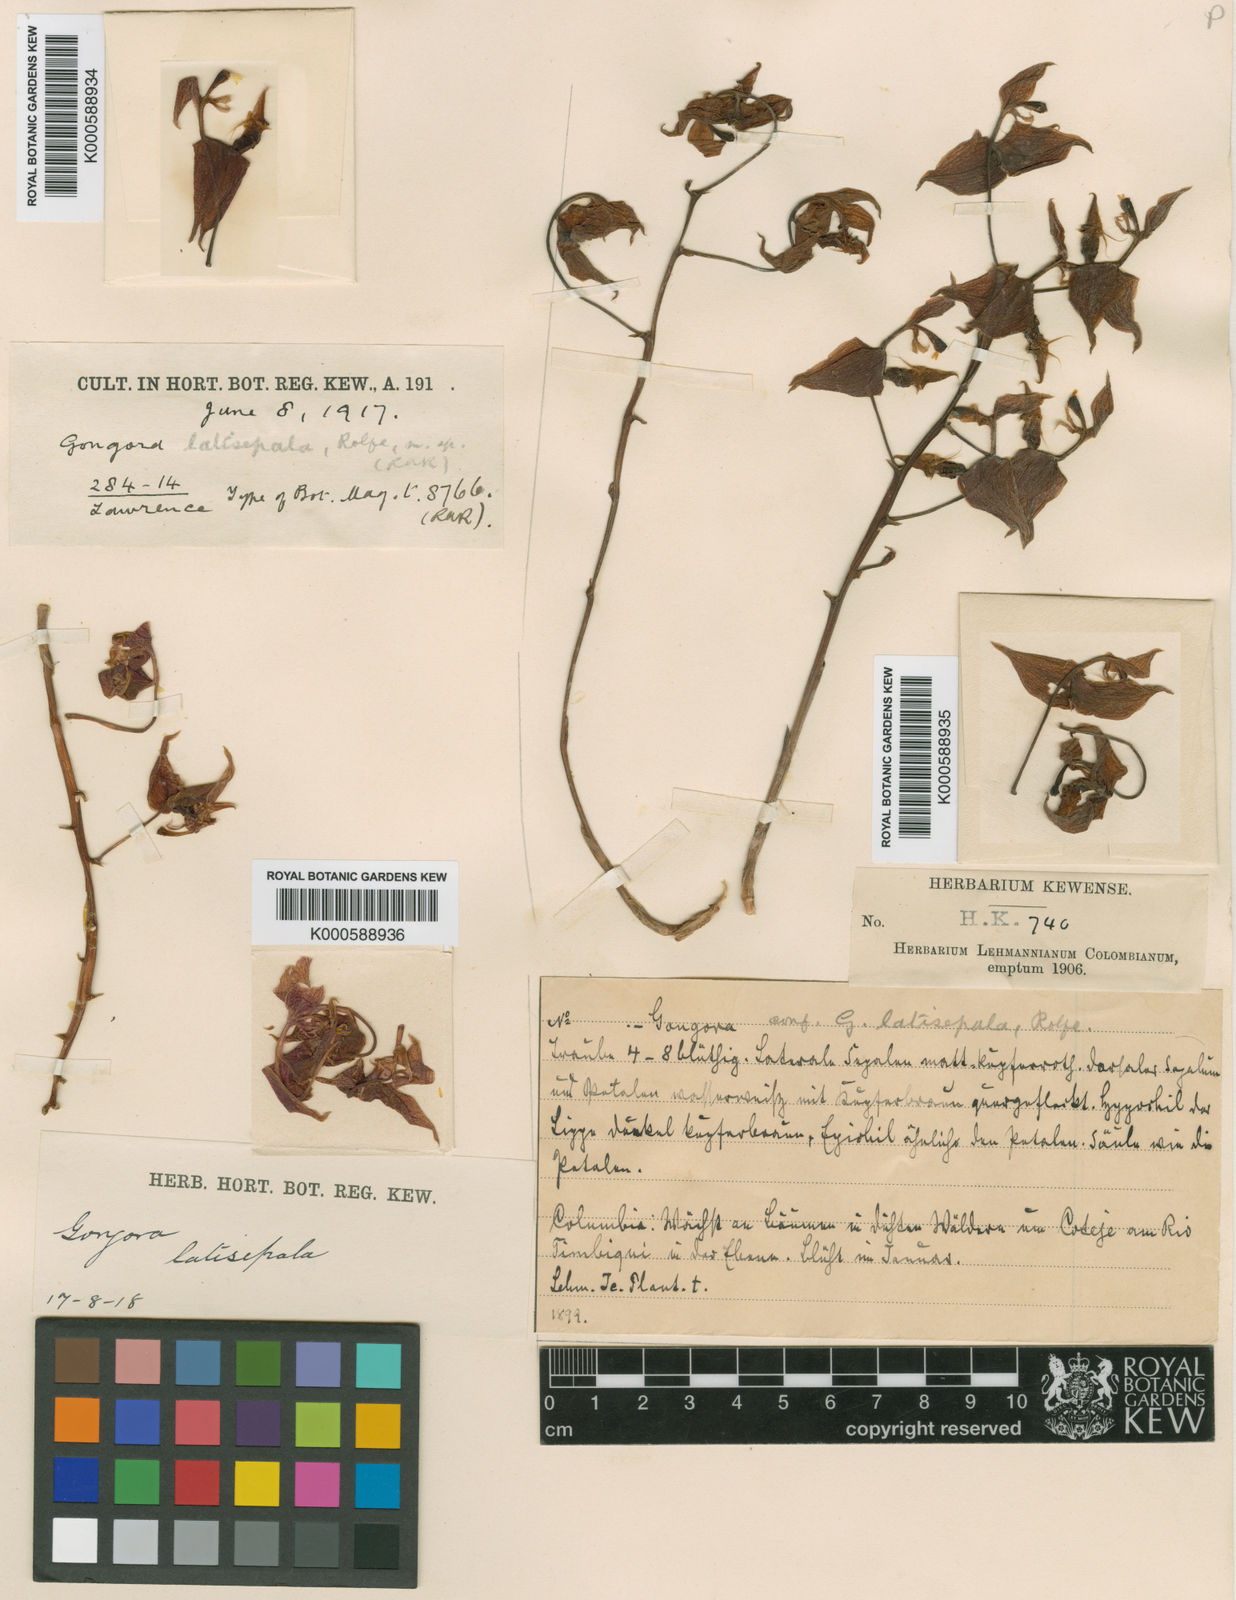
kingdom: Plantae
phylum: Tracheophyta
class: Liliopsida
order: Asparagales
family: Orchidaceae
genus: Gongora
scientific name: Gongora latisepala
